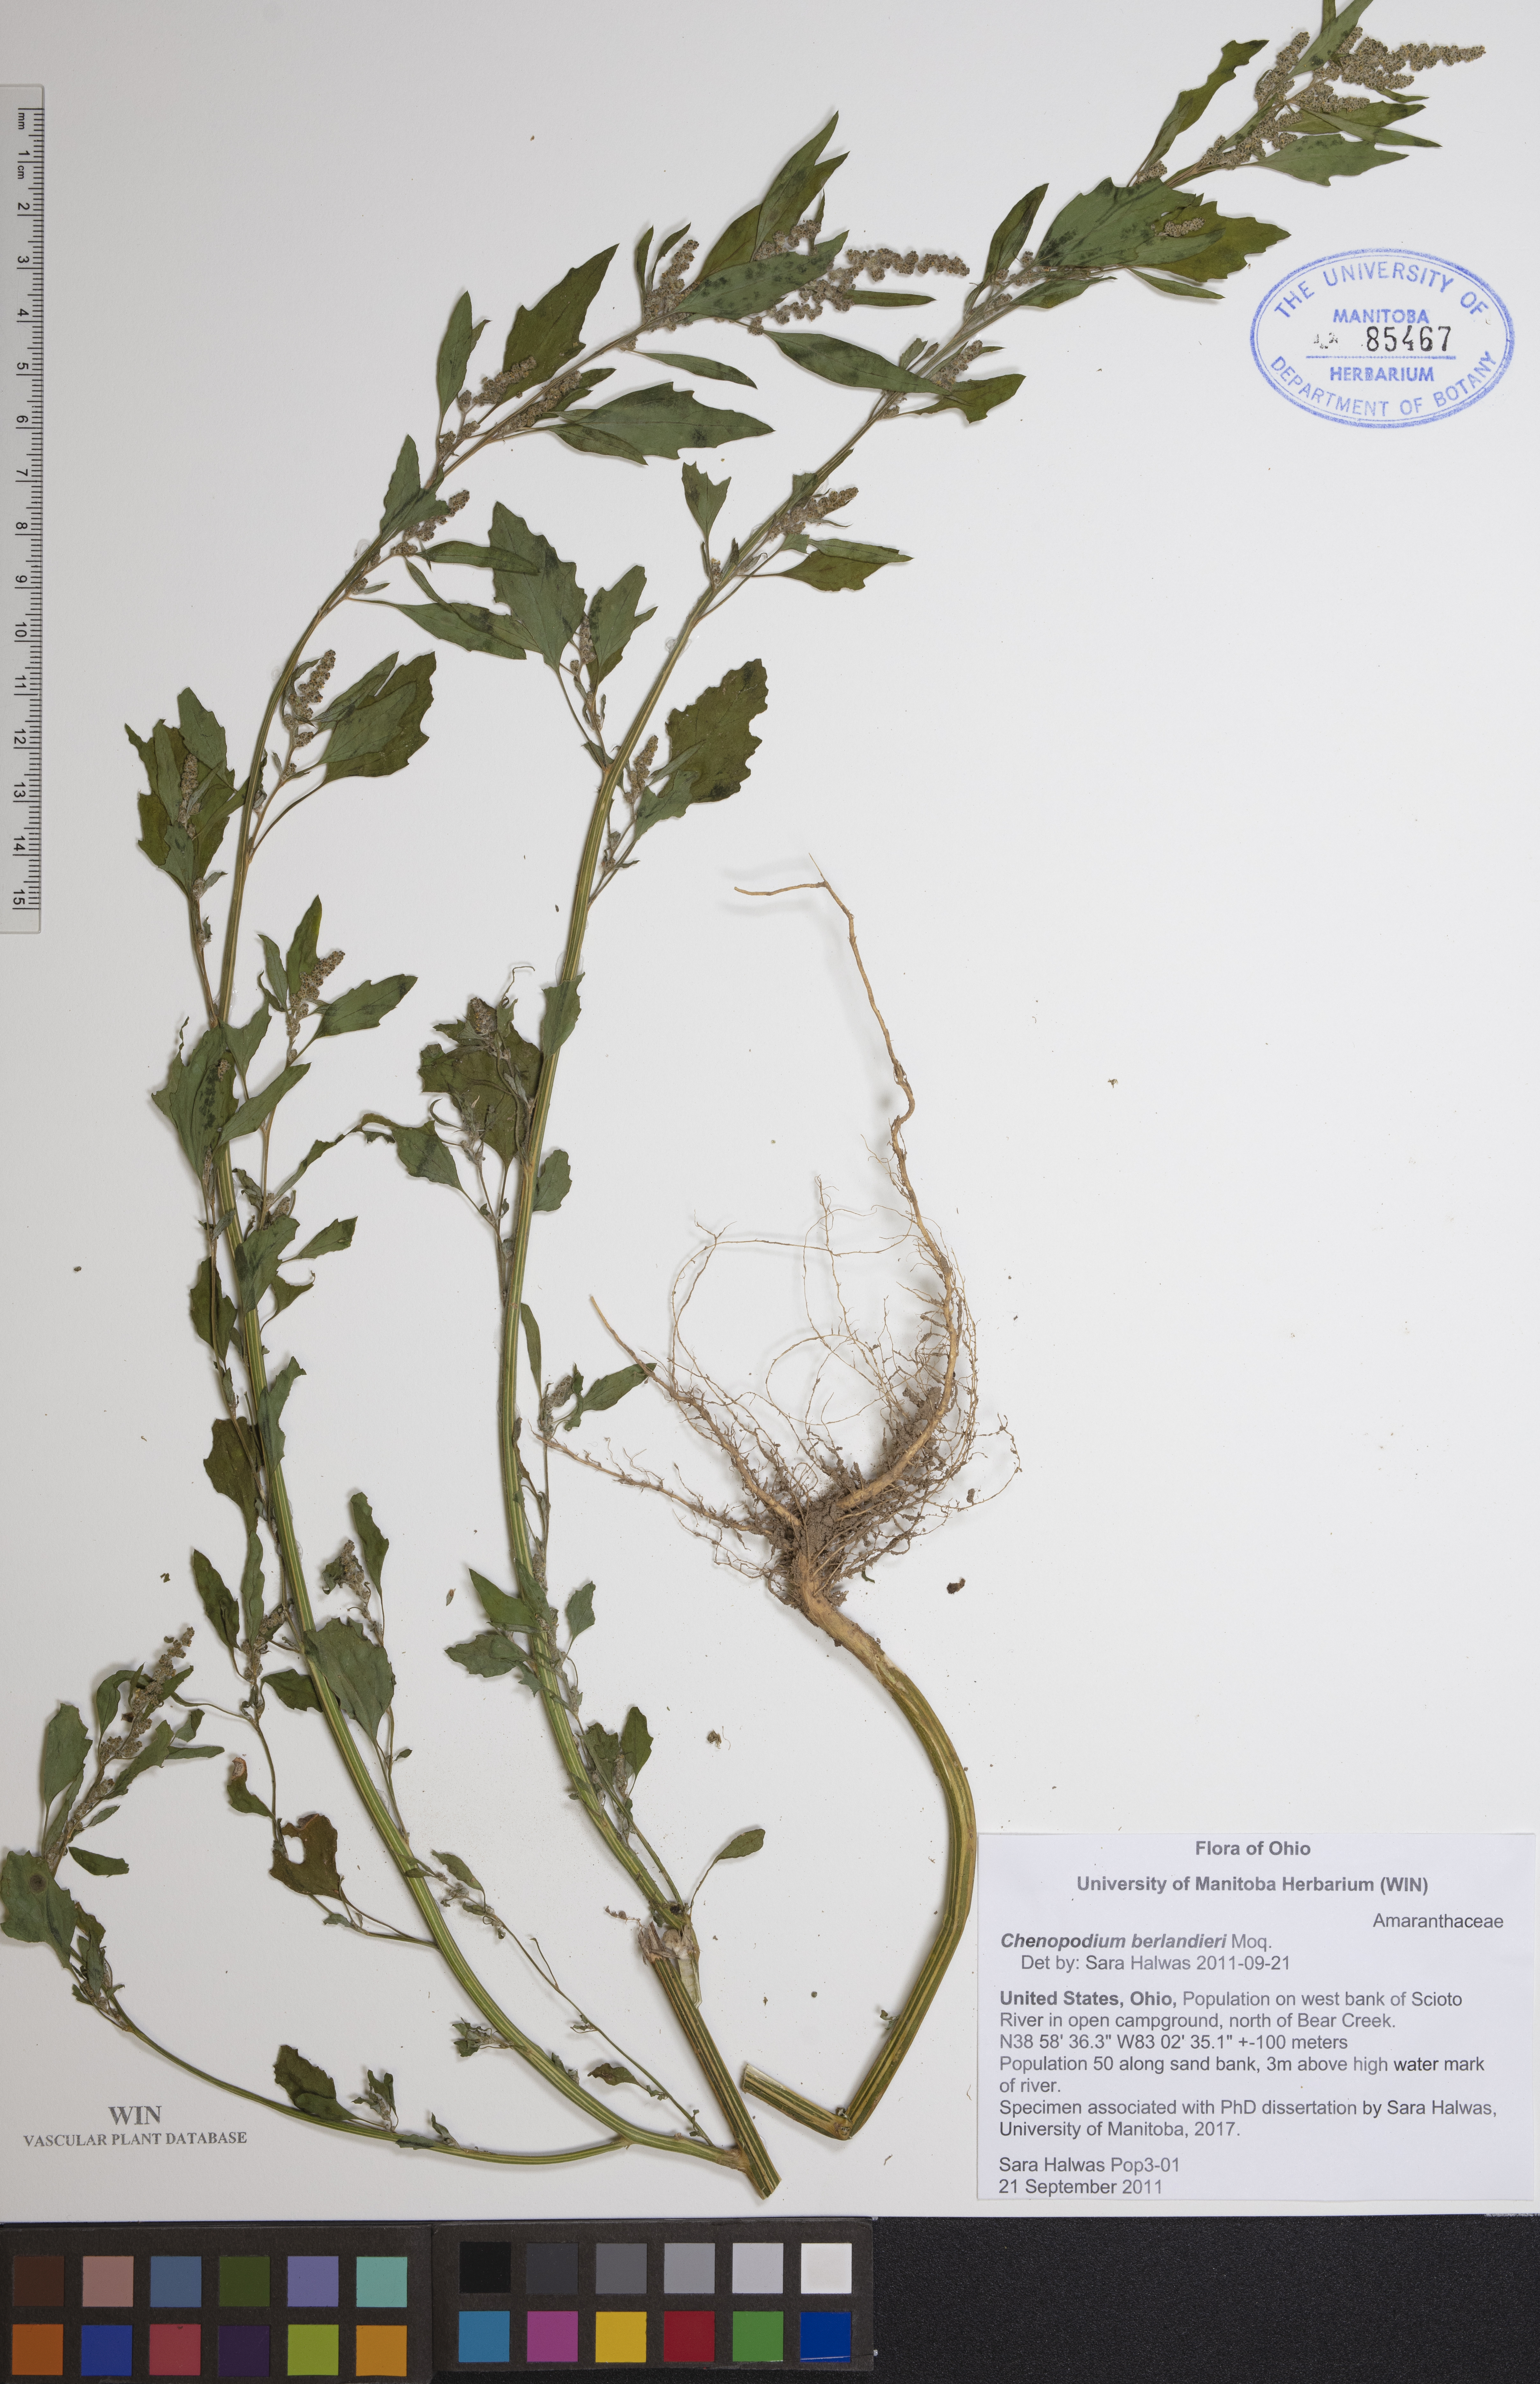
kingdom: Plantae
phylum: Tracheophyta
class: Magnoliopsida
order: Caryophyllales
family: Amaranthaceae
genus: Chenopodium
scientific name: Chenopodium berlandieri
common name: Pit-seed goosefoot
